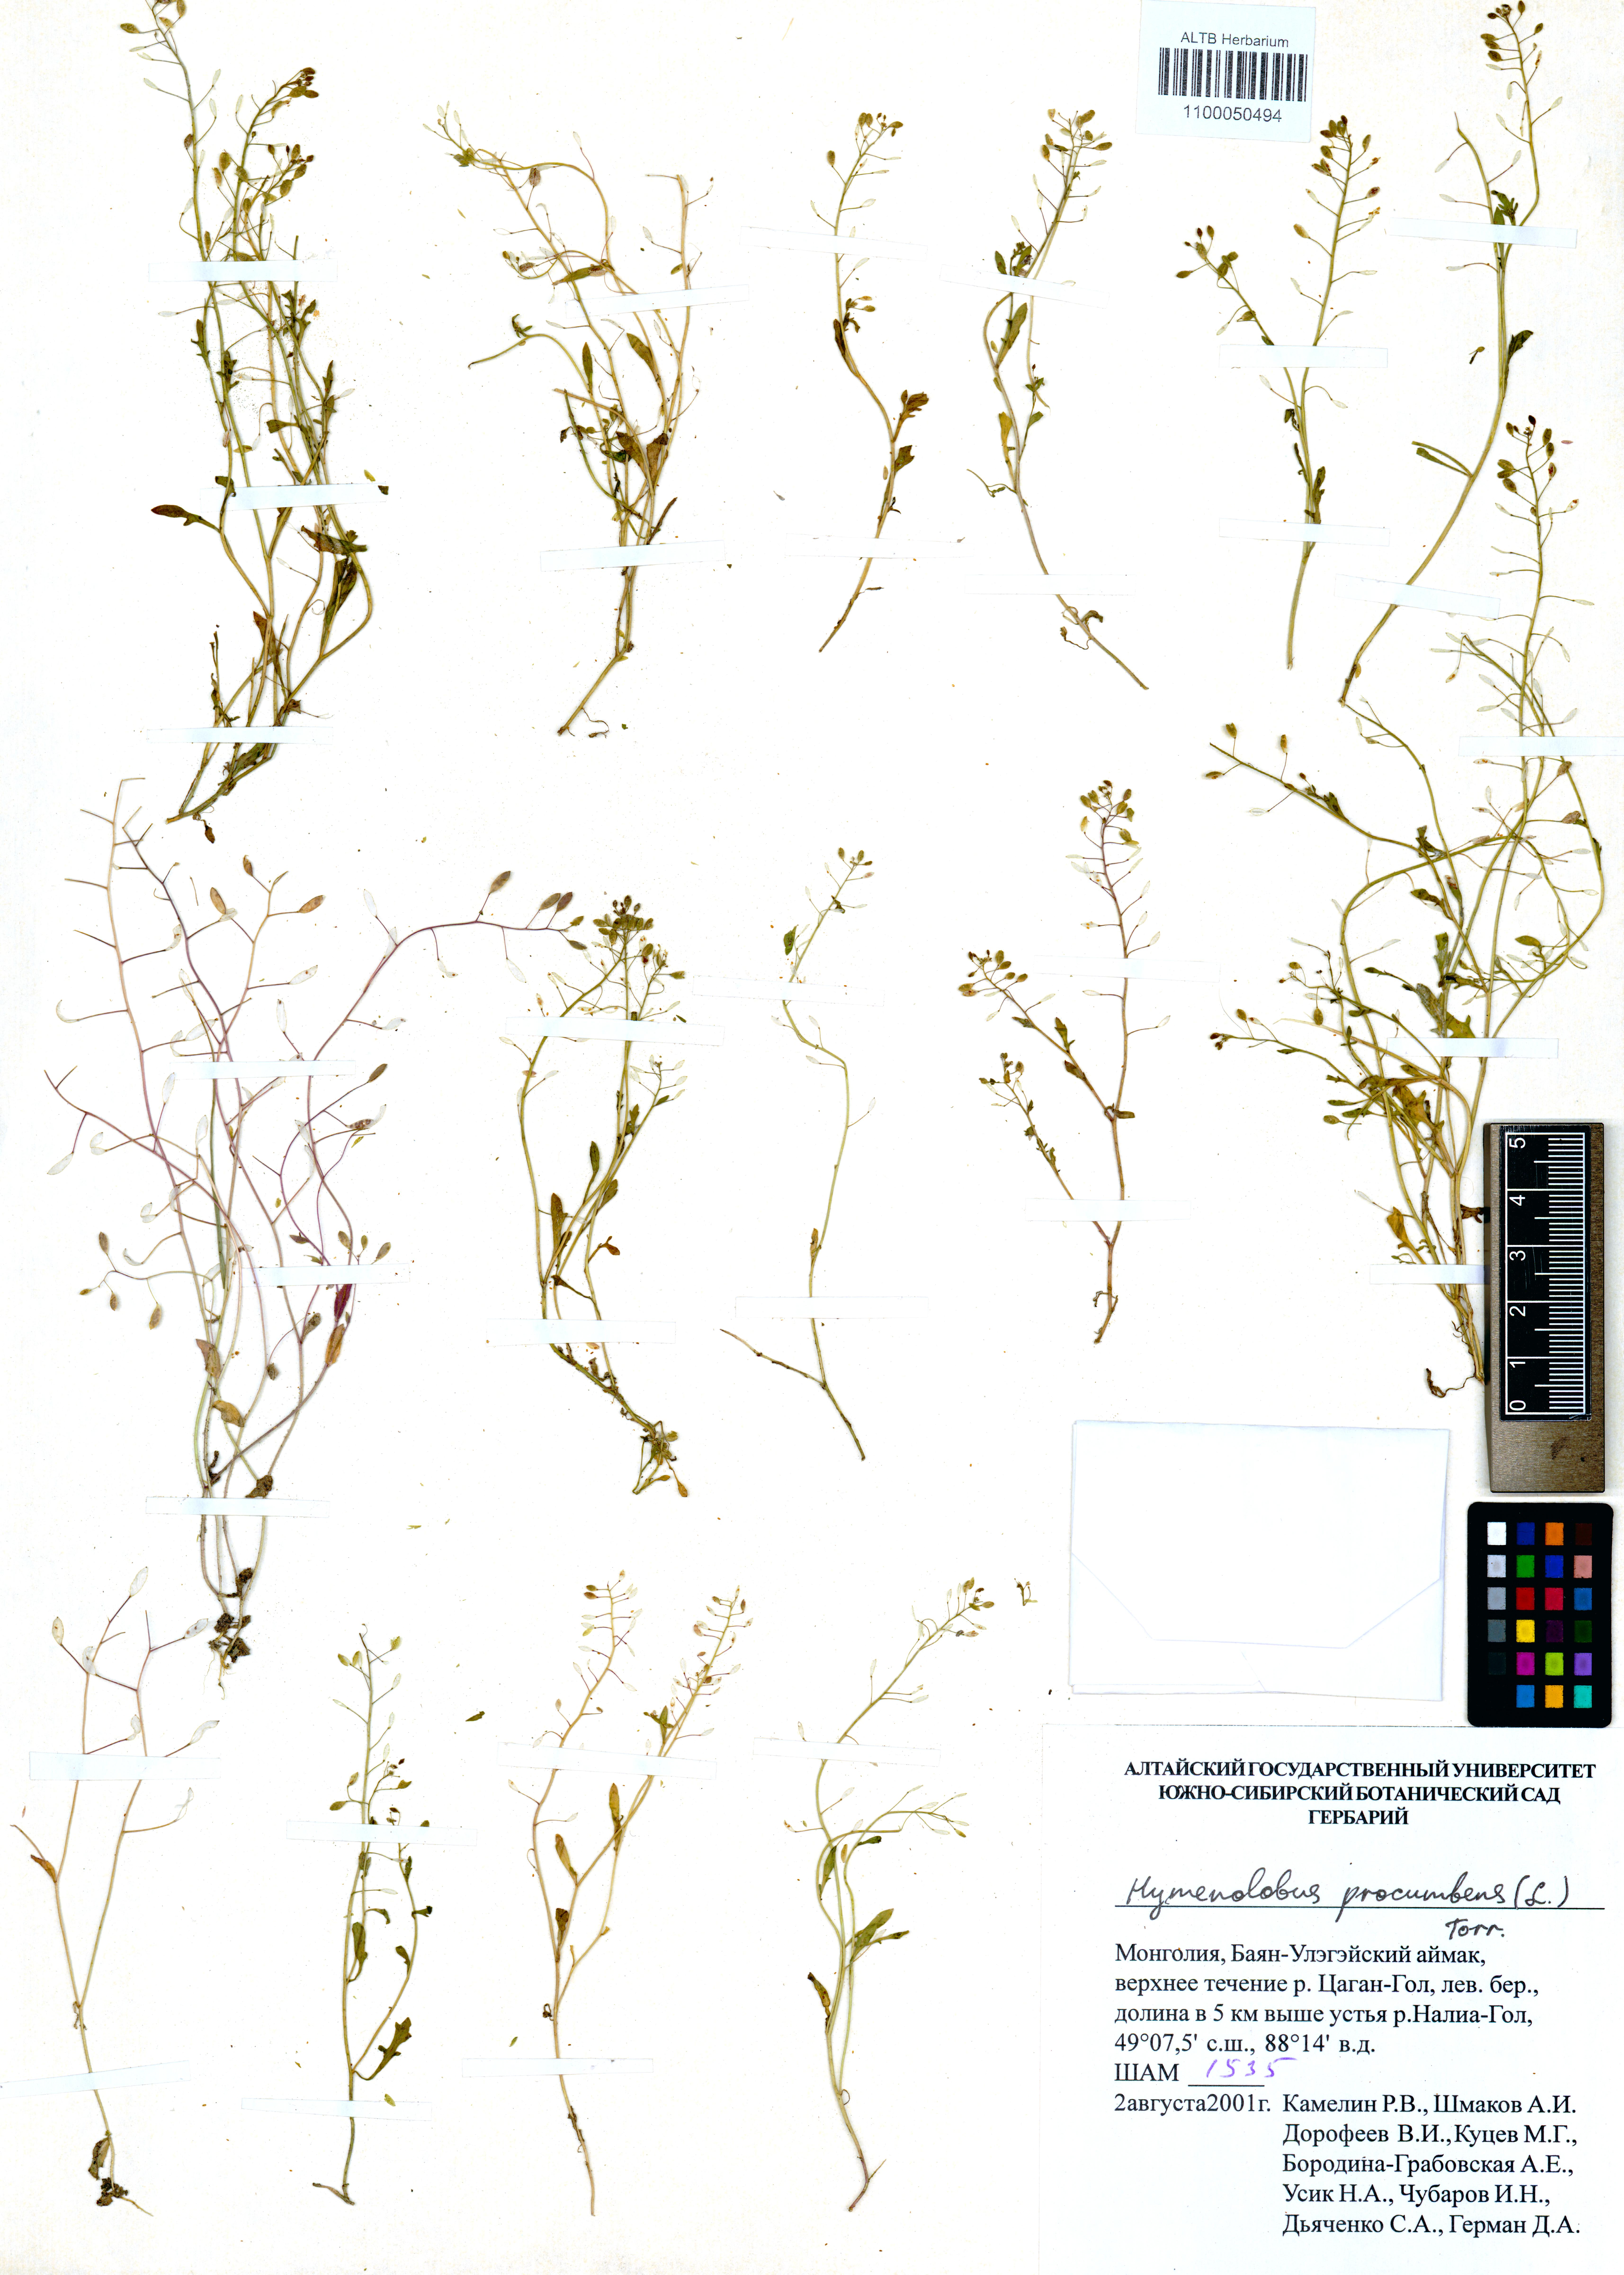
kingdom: Plantae
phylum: Tracheophyta
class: Magnoliopsida
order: Brassicales
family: Brassicaceae
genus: Hornungia
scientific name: Hornungia procumbens
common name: Oval purse
